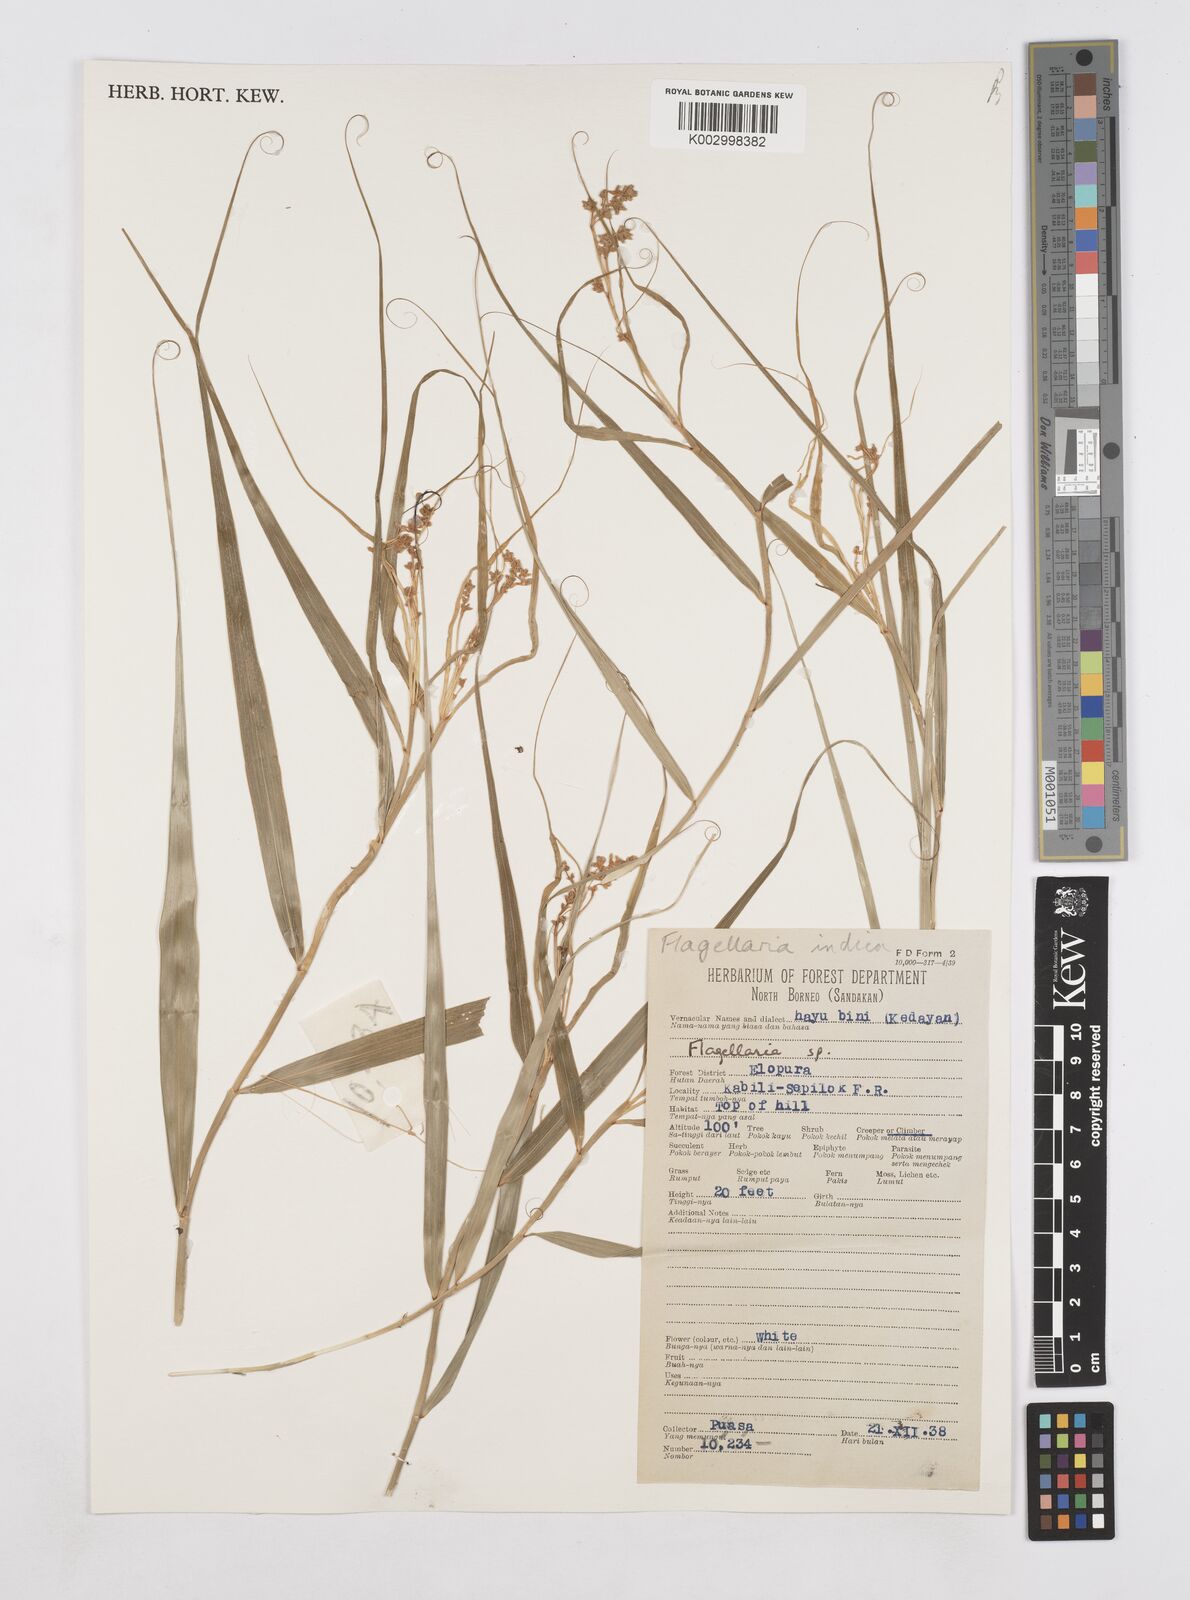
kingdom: Plantae
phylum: Tracheophyta
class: Liliopsida
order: Poales
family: Flagellariaceae
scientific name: Flagellariaceae
